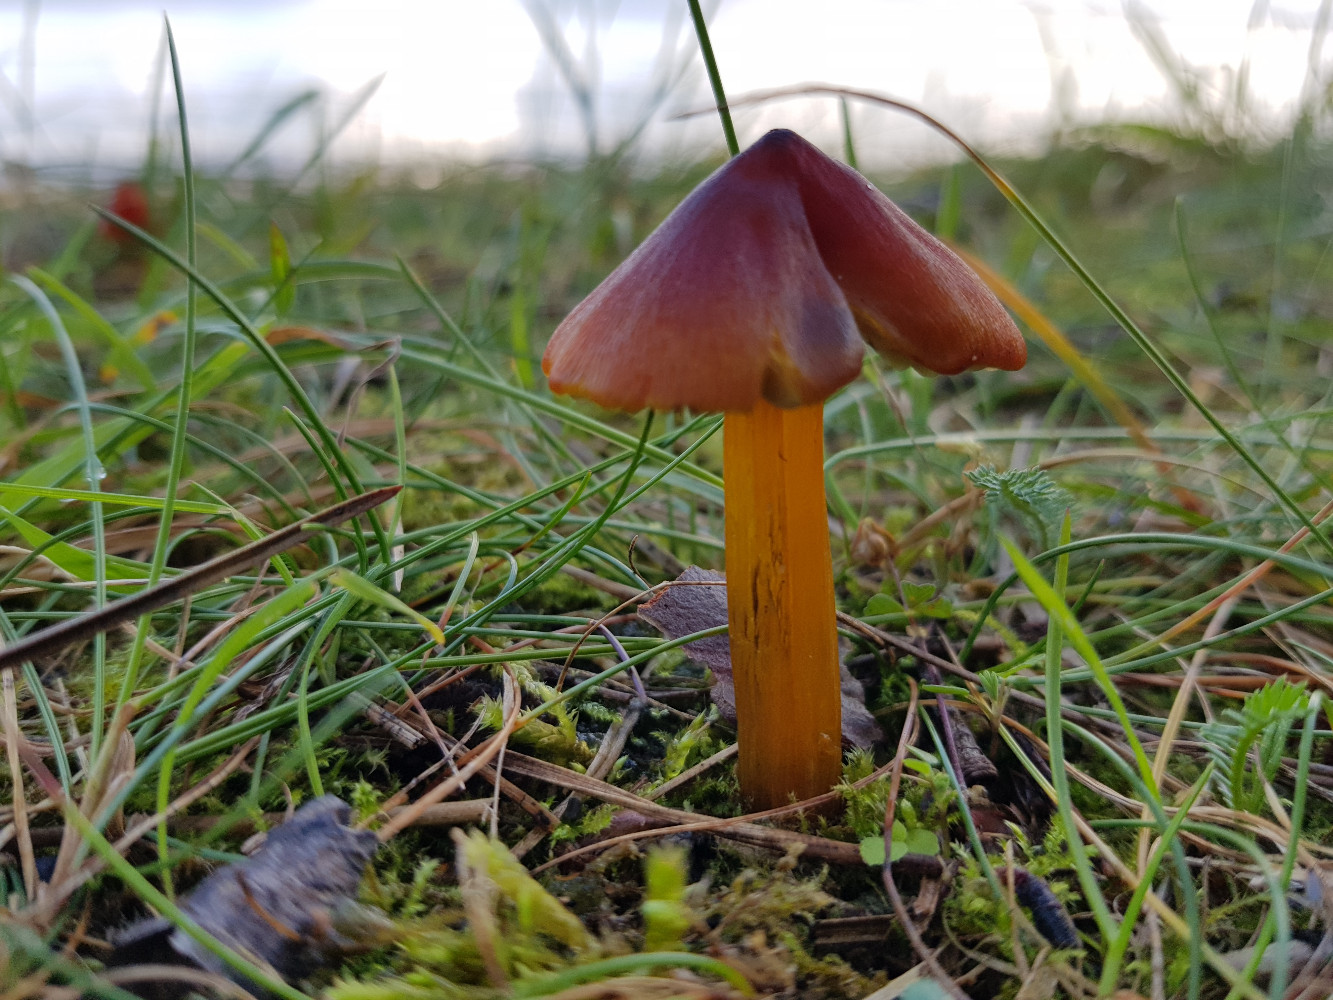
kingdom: Fungi
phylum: Basidiomycota
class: Agaricomycetes
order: Agaricales
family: Hygrophoraceae
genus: Hygrocybe
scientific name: Hygrocybe conica
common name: kegle-vokshat
